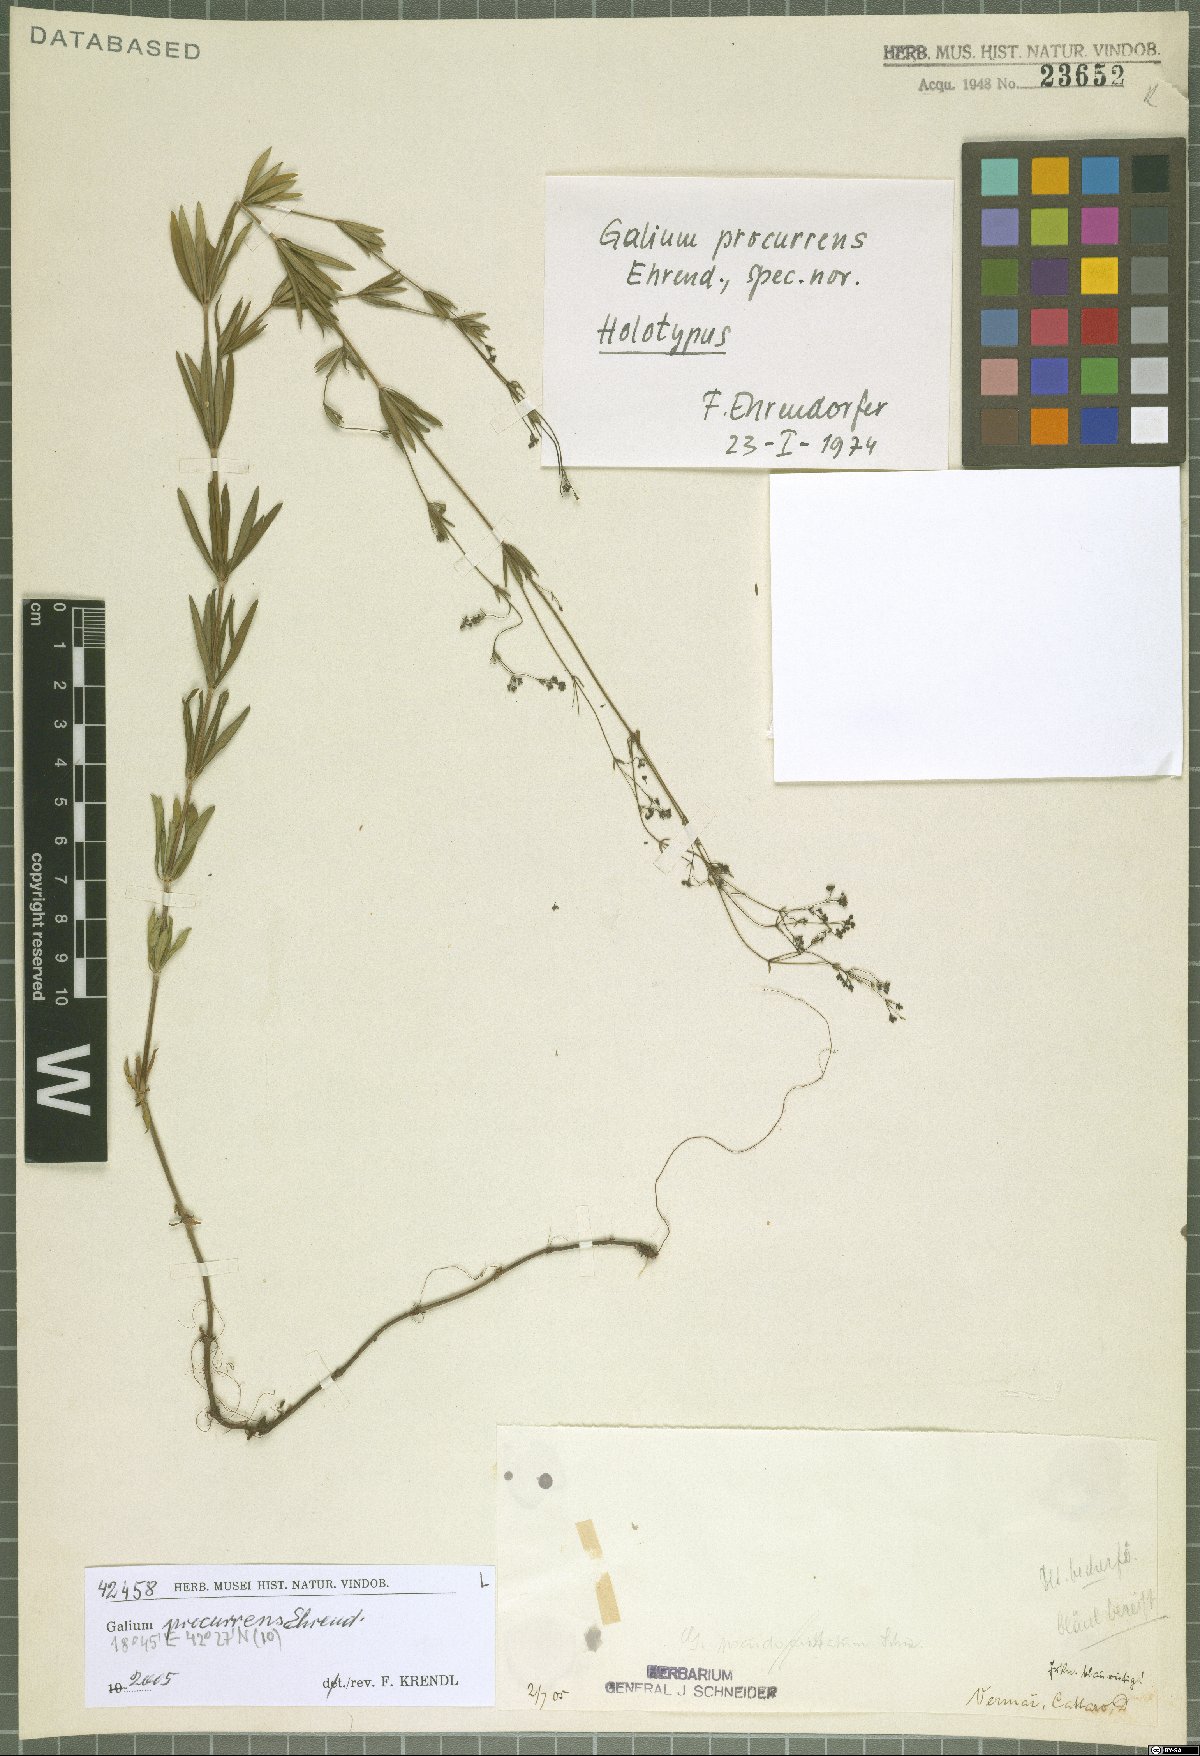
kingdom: Plantae
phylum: Tracheophyta
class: Magnoliopsida
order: Gentianales
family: Rubiaceae
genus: Galium
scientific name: Galium procurrens
